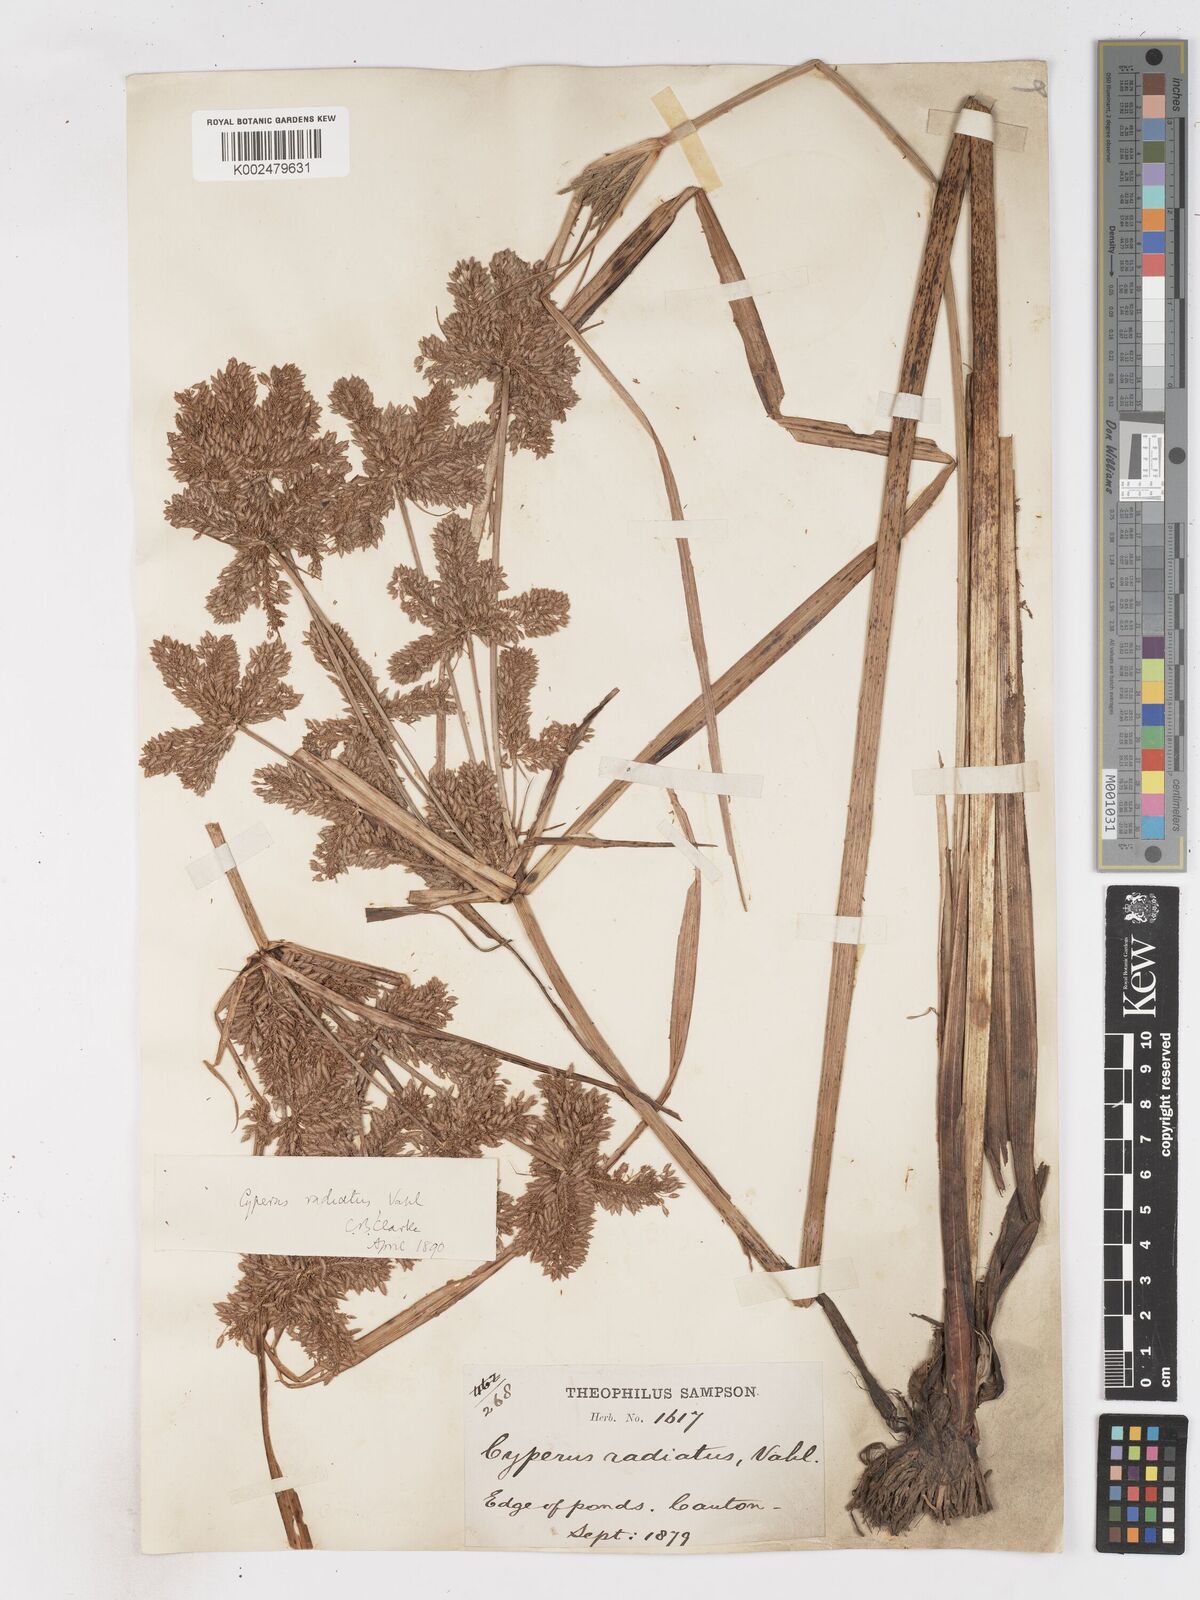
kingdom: Plantae
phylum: Tracheophyta
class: Liliopsida
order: Poales
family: Cyperaceae
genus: Cyperus
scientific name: Cyperus imbricatus
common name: Shingle flatsedge
